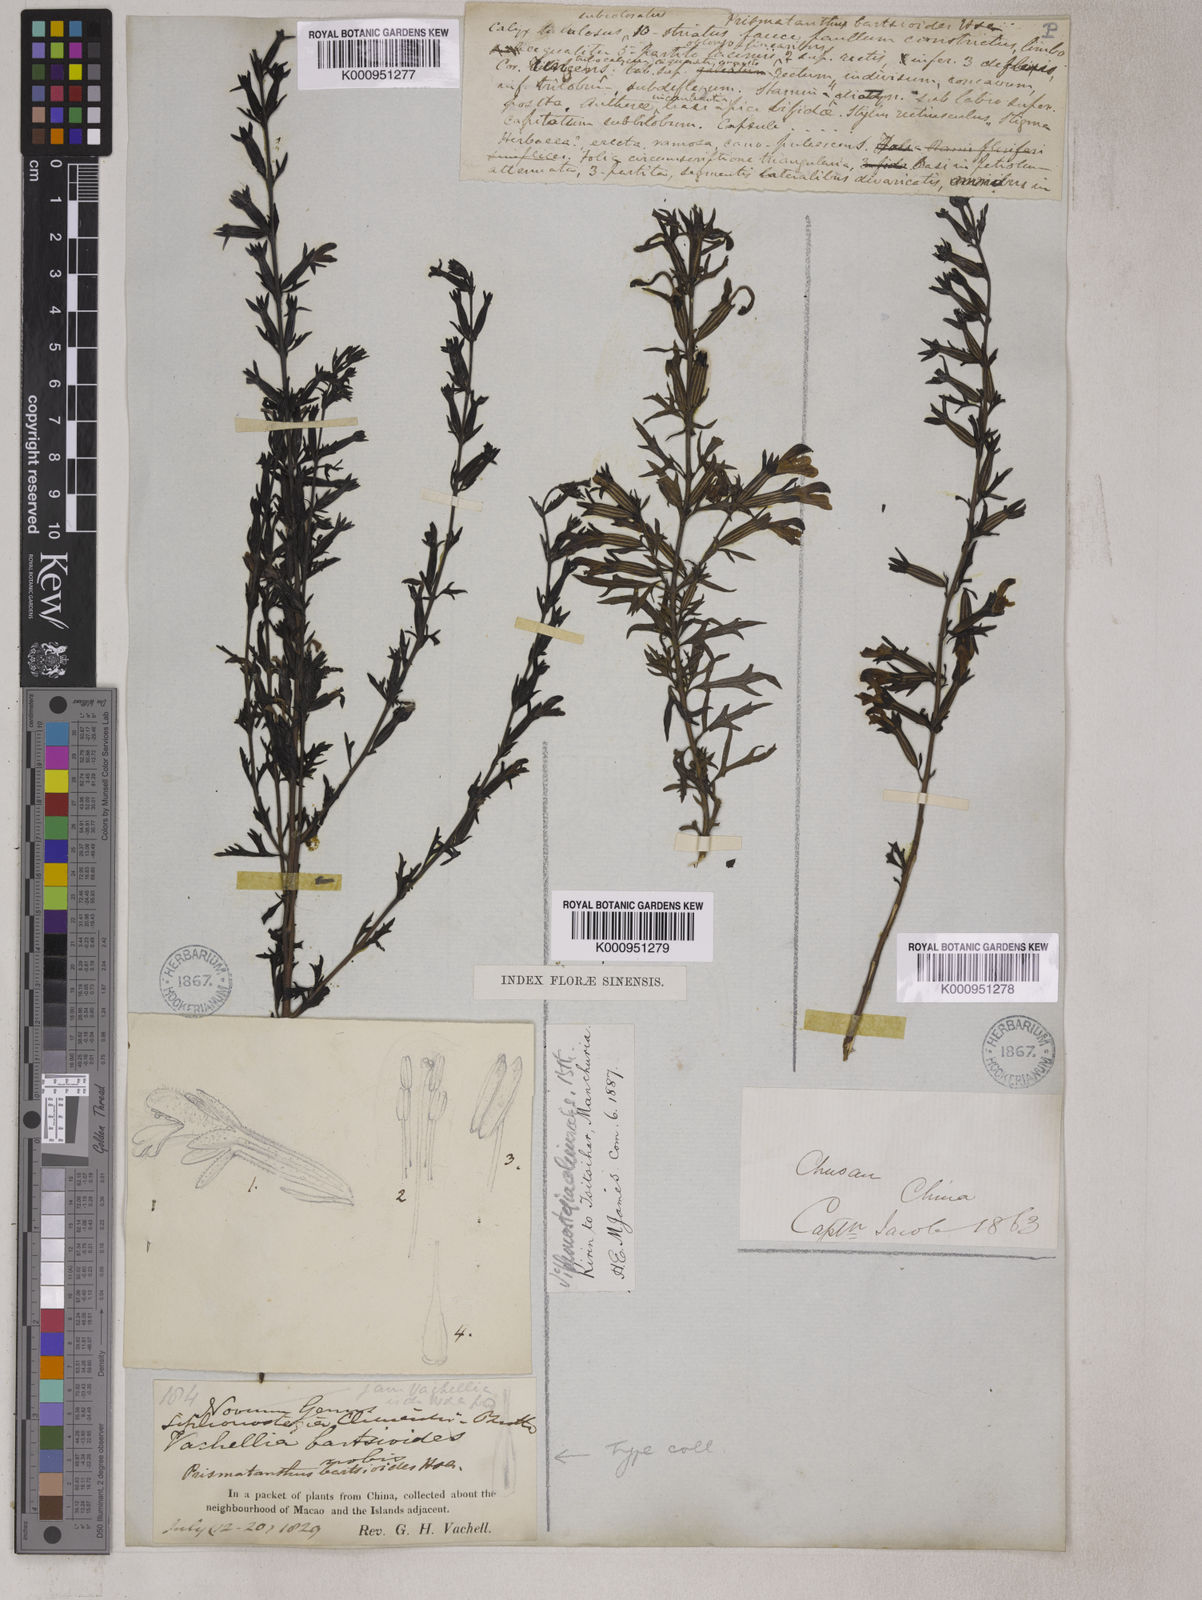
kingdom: Plantae
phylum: Tracheophyta
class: Magnoliopsida
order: Lamiales
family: Orobanchaceae
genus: Siphonostegia
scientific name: Siphonostegia chinensis
